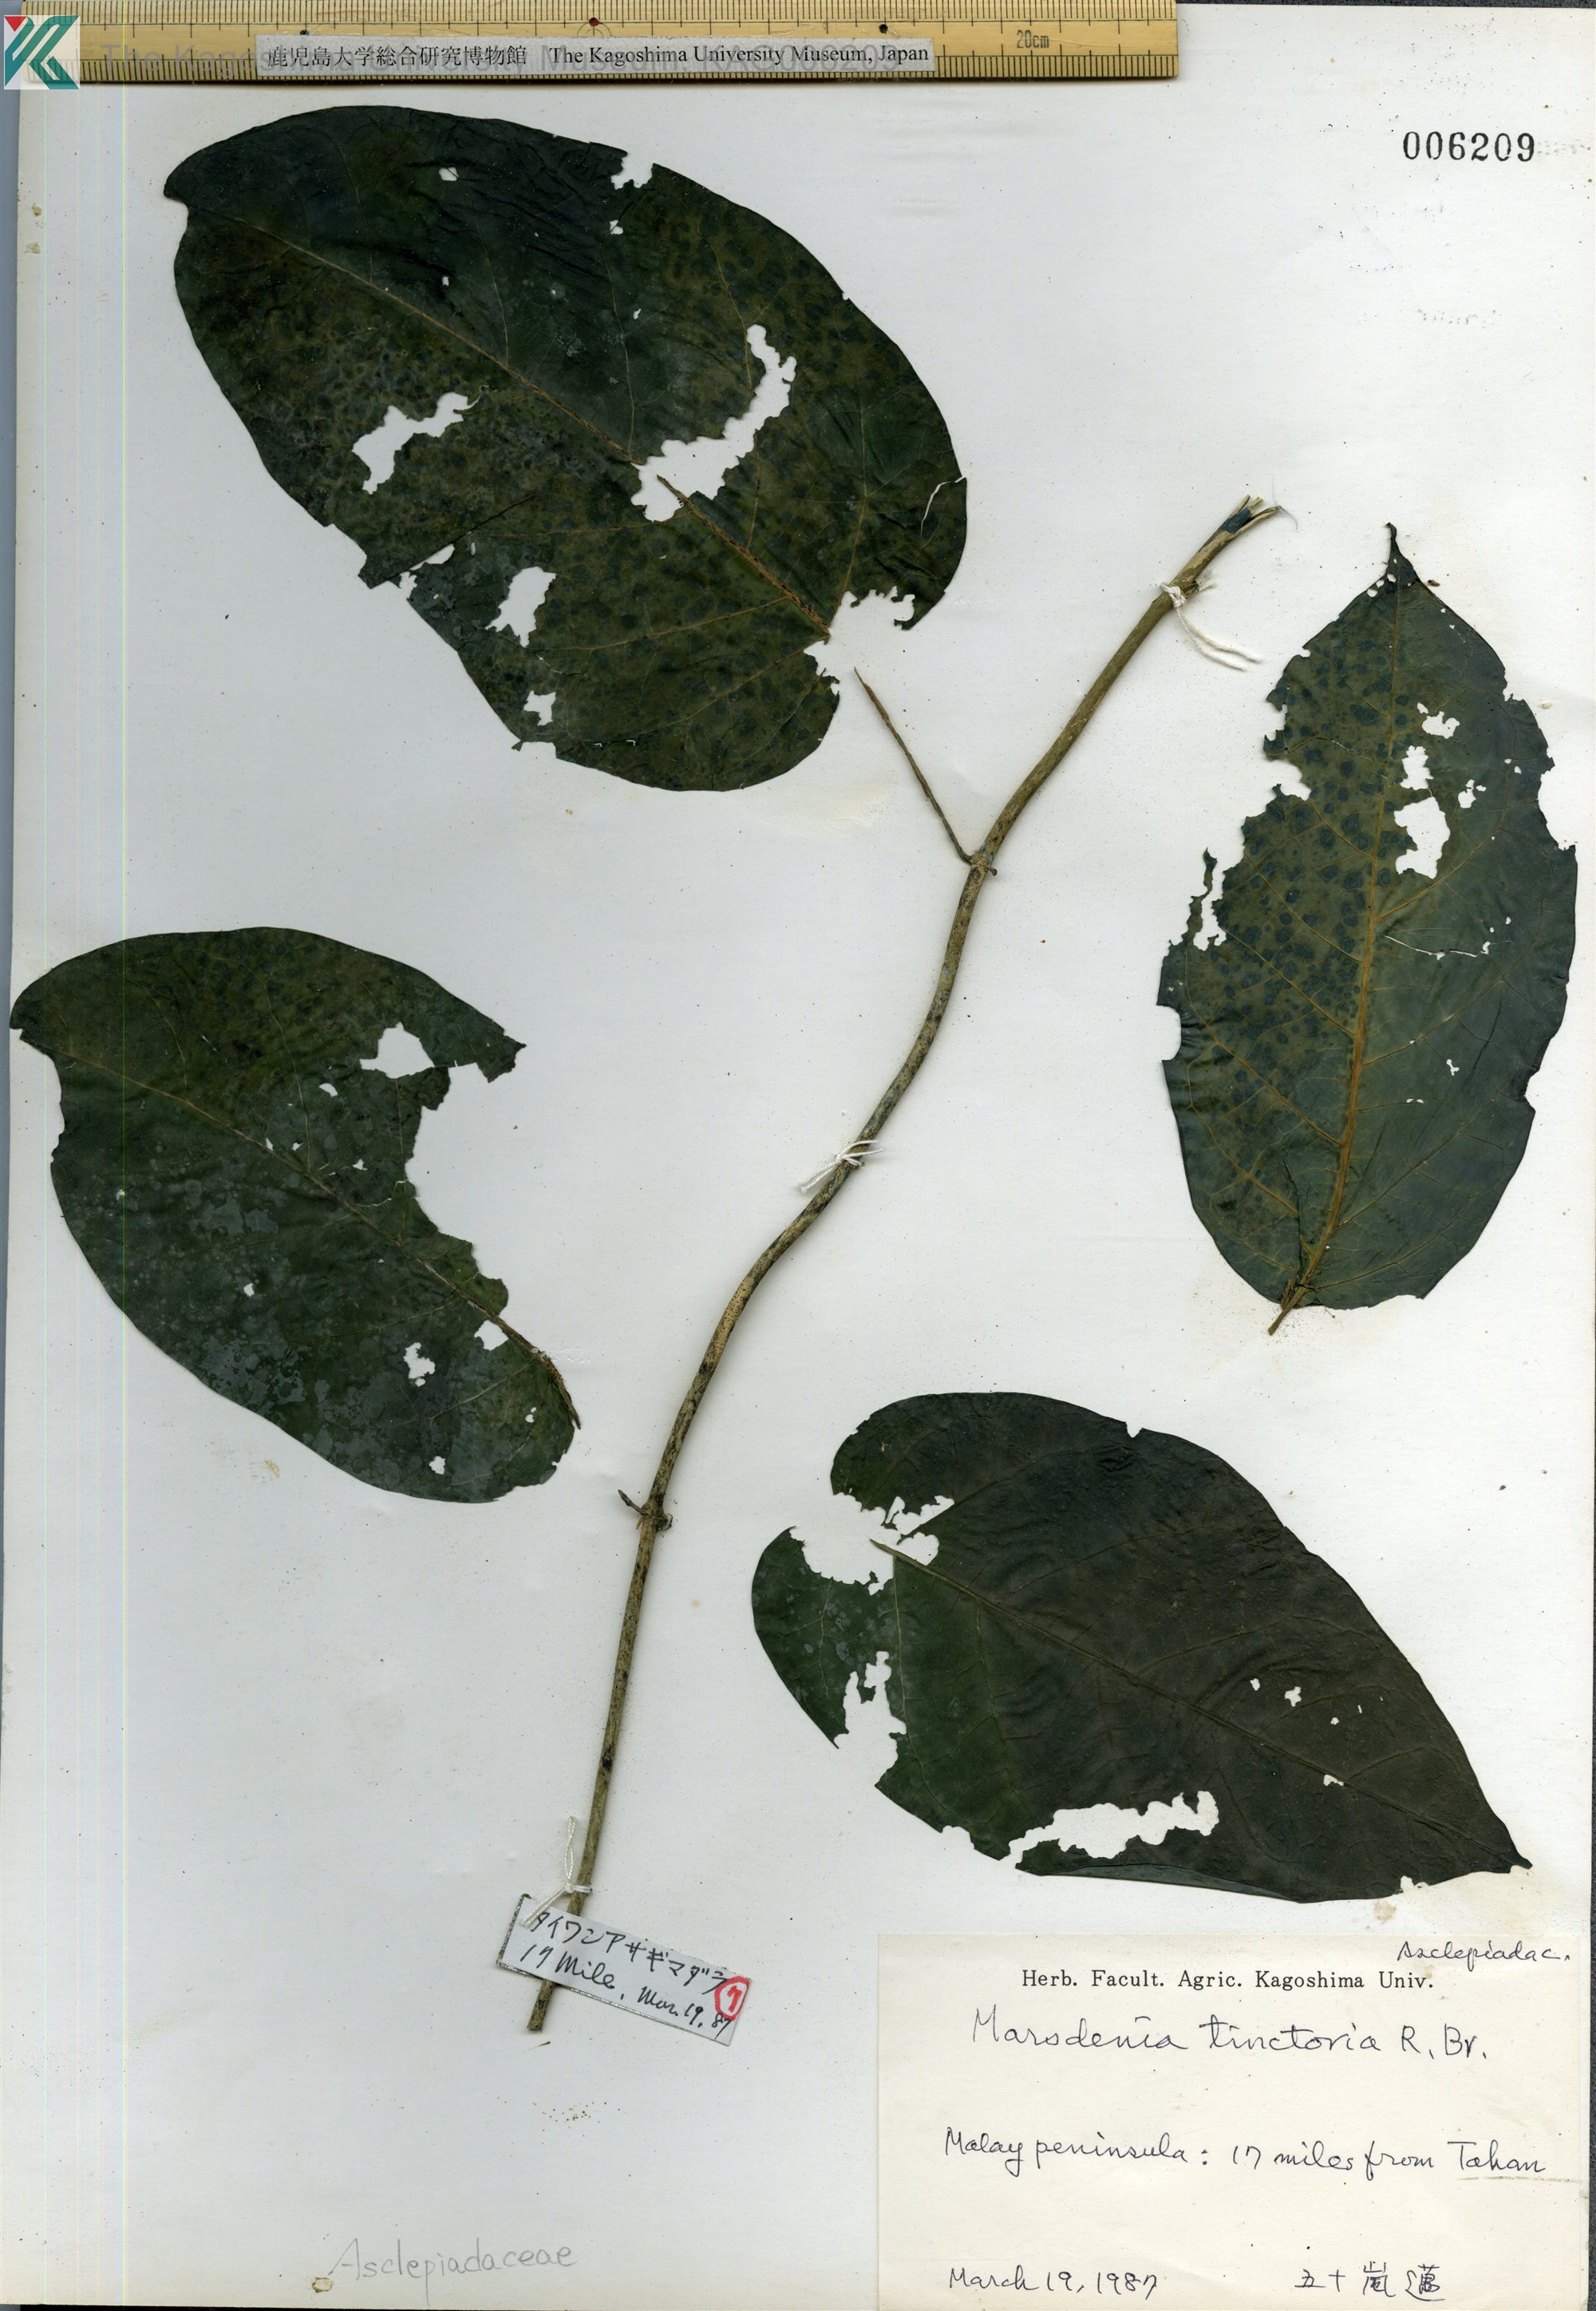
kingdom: Plantae
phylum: Tracheophyta
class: Magnoliopsida
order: Gentianales
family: Apocynaceae
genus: Marsdenia
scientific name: Marsdenia tinctoria
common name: Climbing-indigo
